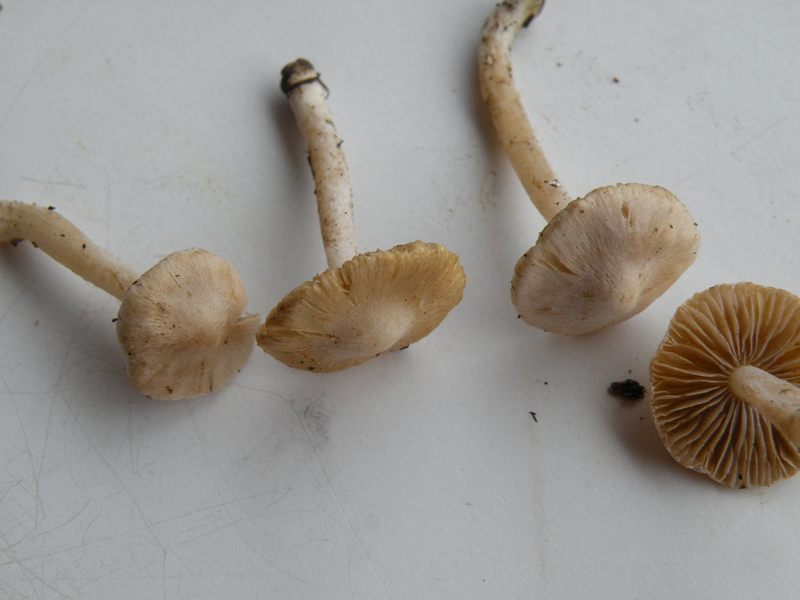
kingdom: Fungi
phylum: Basidiomycota
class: Agaricomycetes
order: Agaricales
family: Inocybaceae
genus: Inocybe
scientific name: Inocybe
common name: almindelig trævlhat
